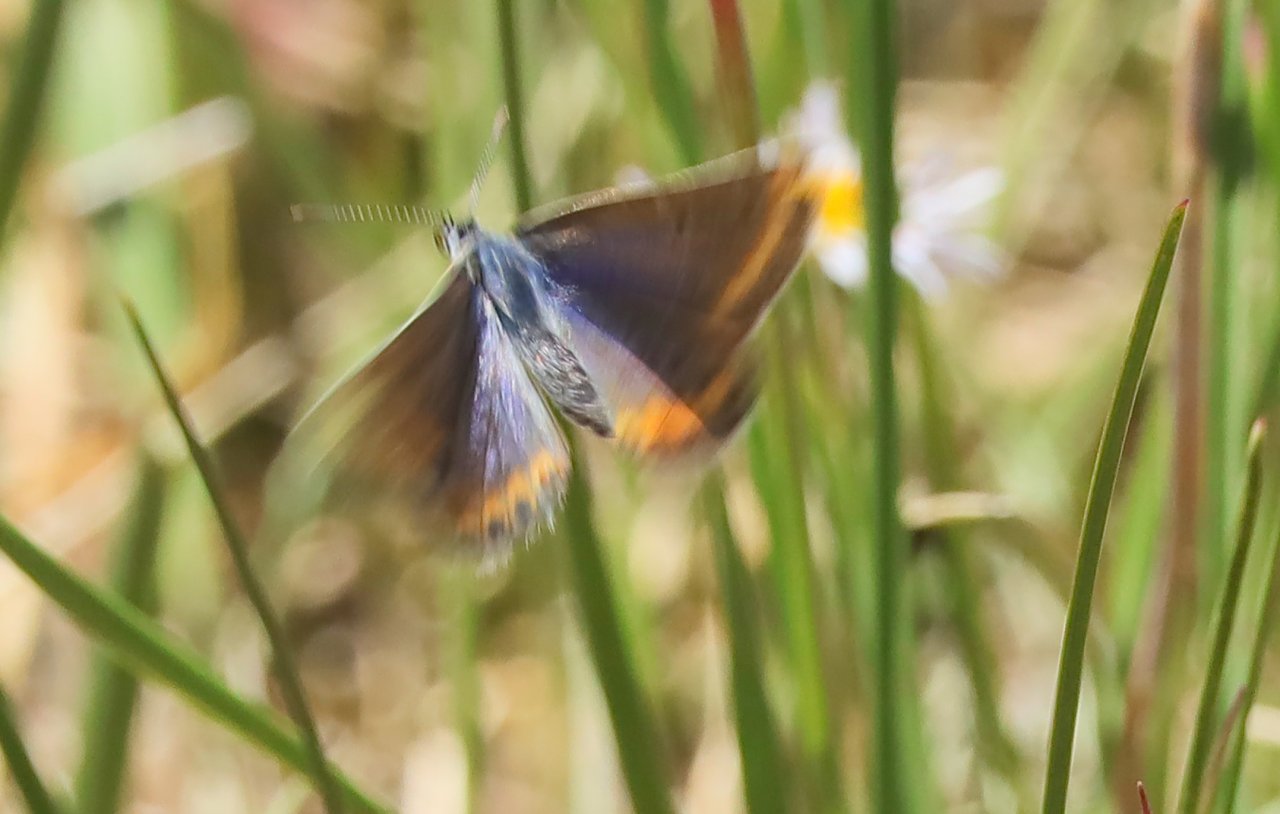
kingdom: Animalia
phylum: Arthropoda
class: Insecta
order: Lepidoptera
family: Lycaenidae
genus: Lycaeides
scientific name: Lycaeides melissa
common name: Melissa Blue
